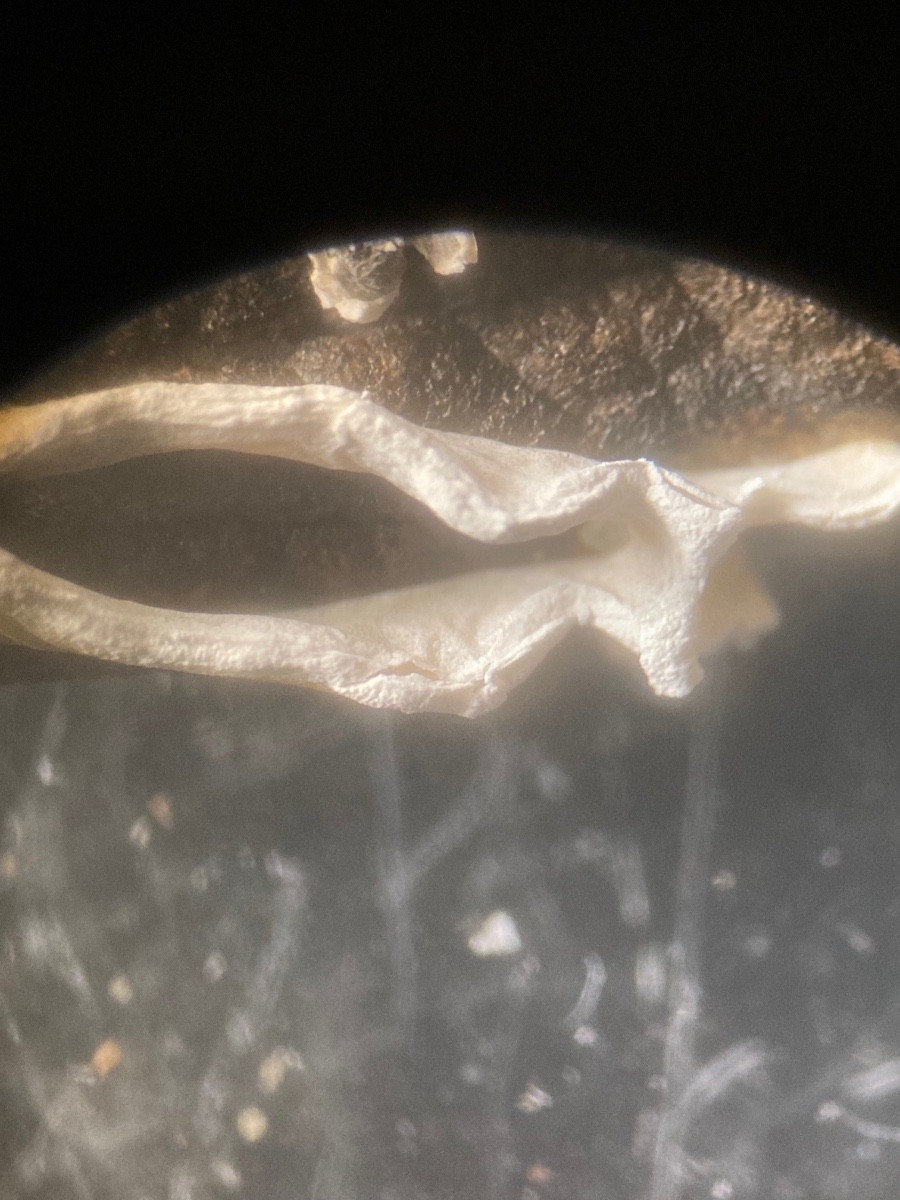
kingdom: Protozoa
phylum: Mycetozoa
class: Myxomycetes
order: Physarales
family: Physaraceae
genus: Physarum
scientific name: Physarum bivalve
